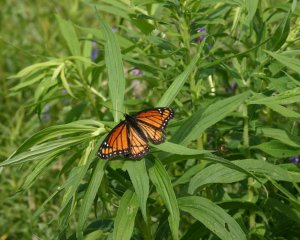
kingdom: Animalia
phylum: Arthropoda
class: Insecta
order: Lepidoptera
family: Nymphalidae
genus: Limenitis
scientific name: Limenitis archippus
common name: Viceroy
